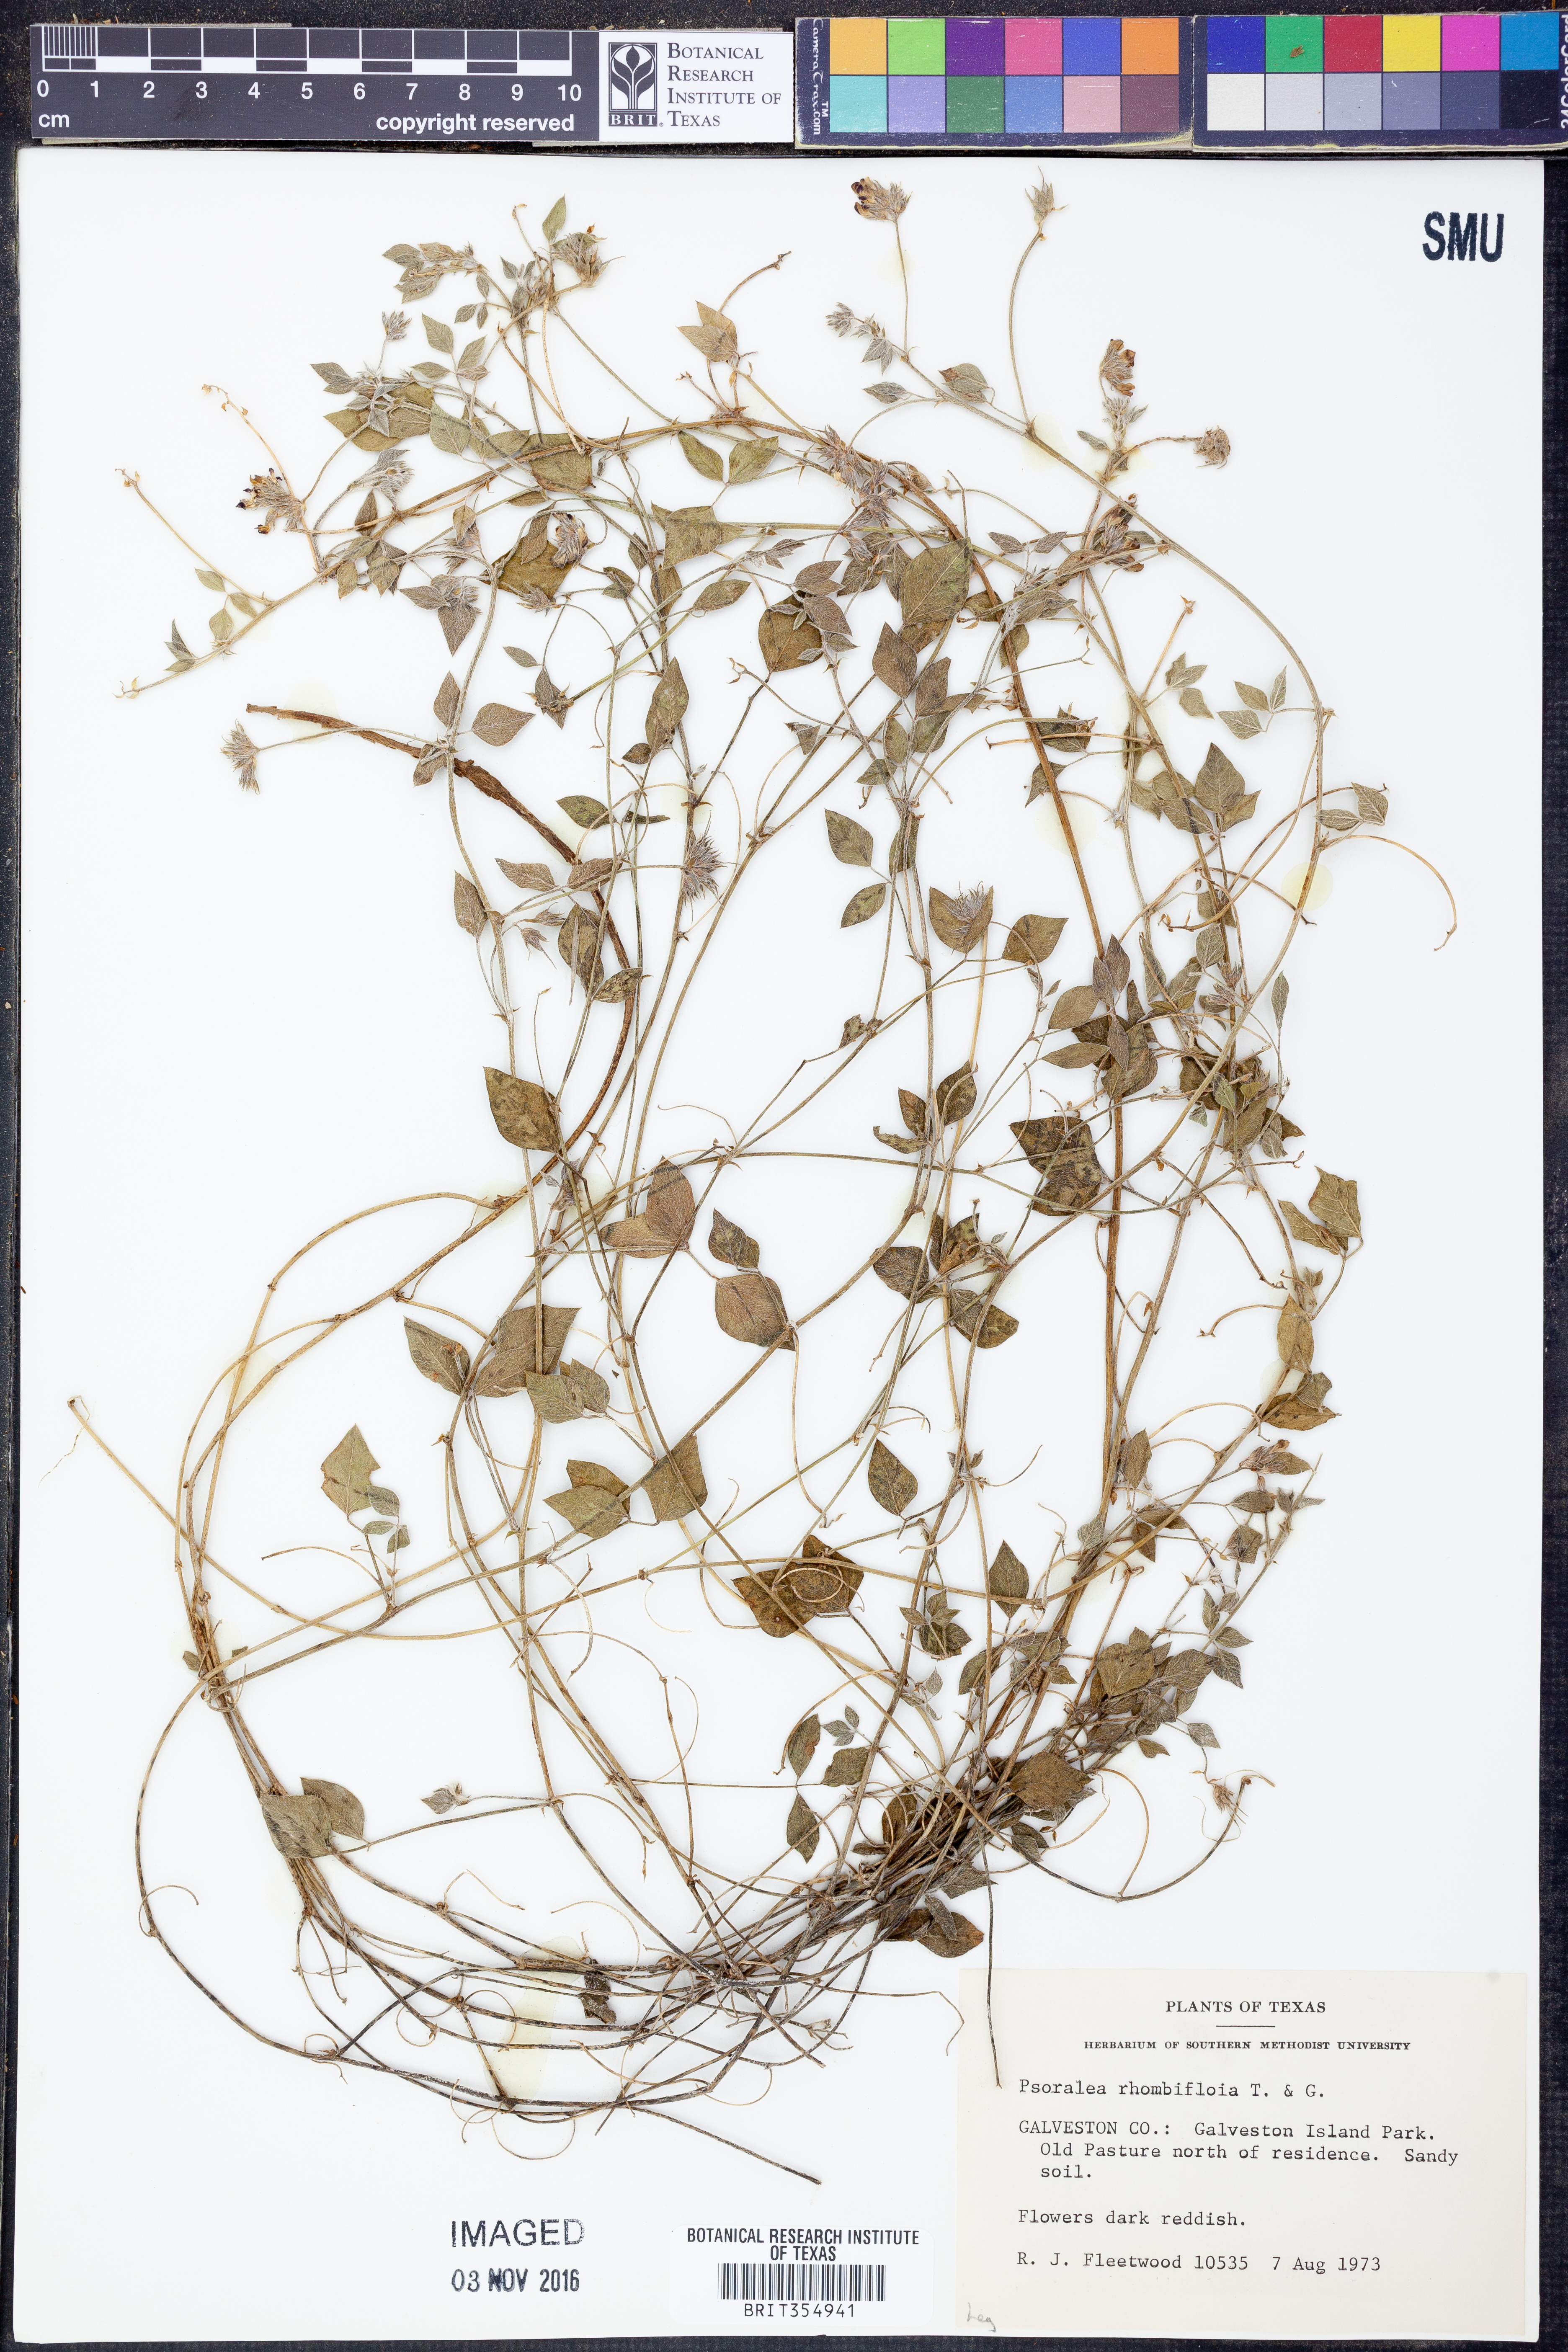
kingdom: Plantae
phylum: Tracheophyta
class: Magnoliopsida
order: Fabales
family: Fabaceae
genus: Pediomelum
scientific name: Pediomelum rhombifolium
